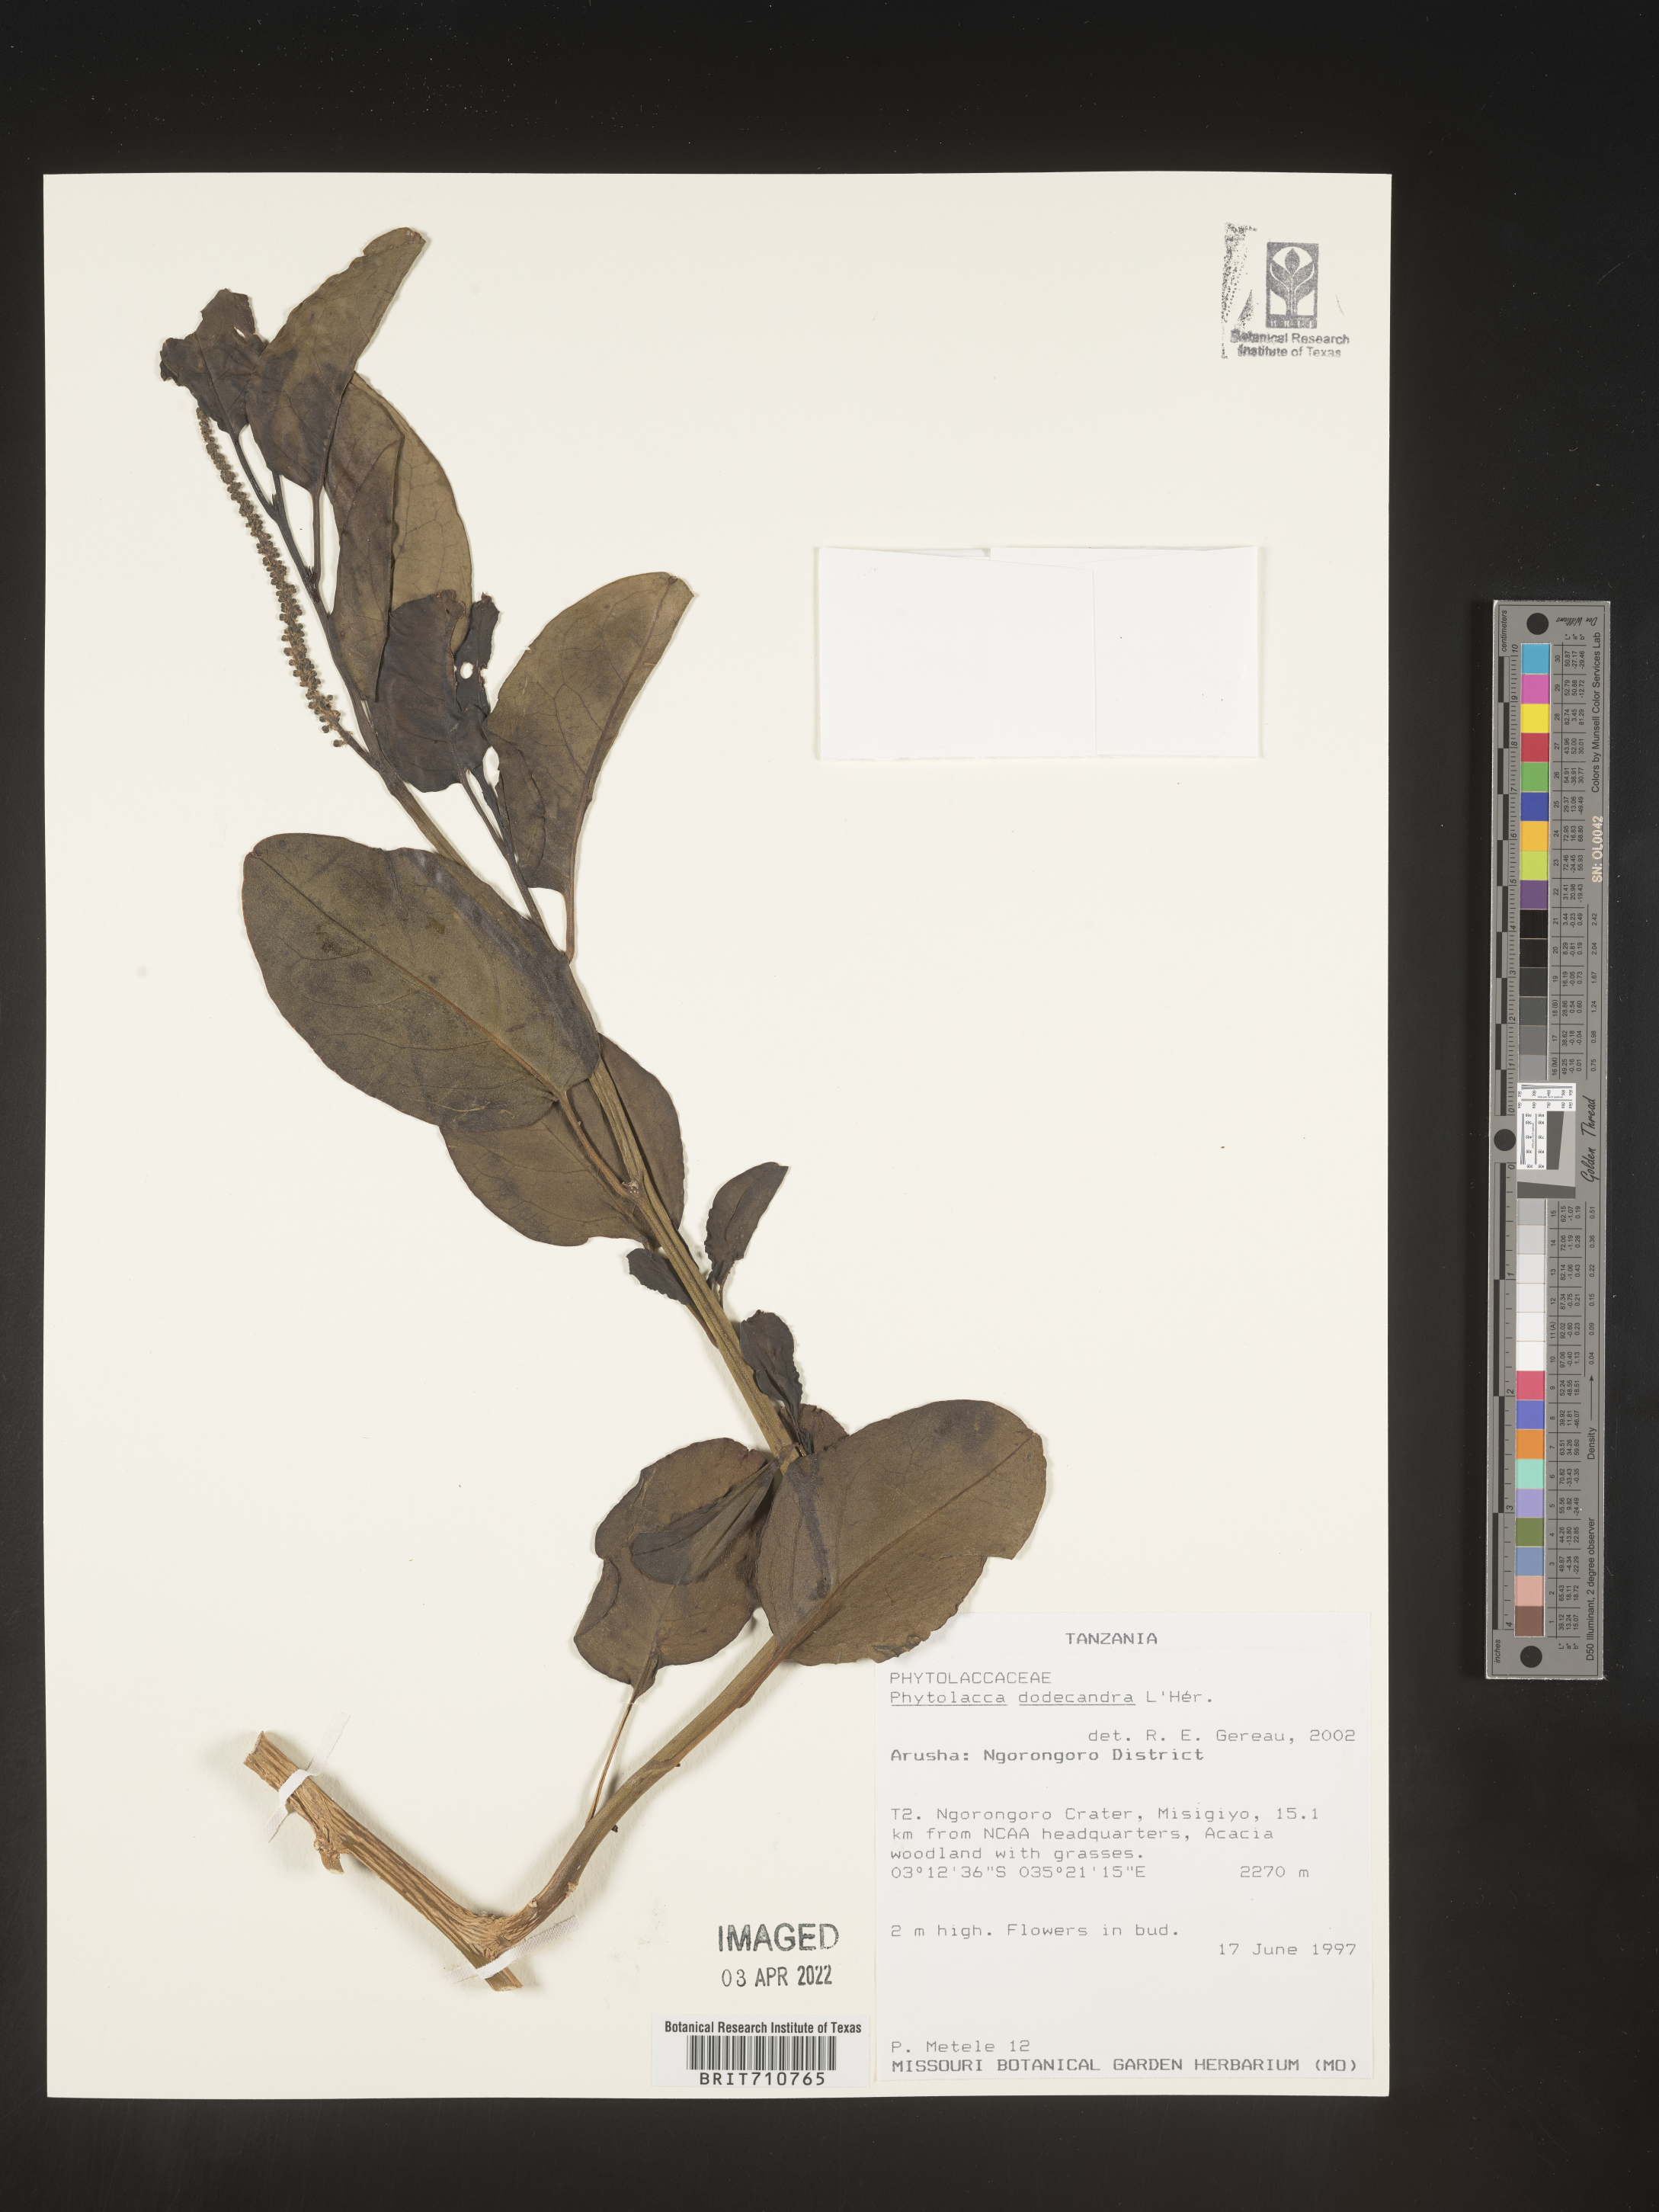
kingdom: Plantae
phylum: Tracheophyta
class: Magnoliopsida
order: Caryophyllales
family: Phytolaccaceae
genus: Phytolacca
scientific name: Phytolacca
